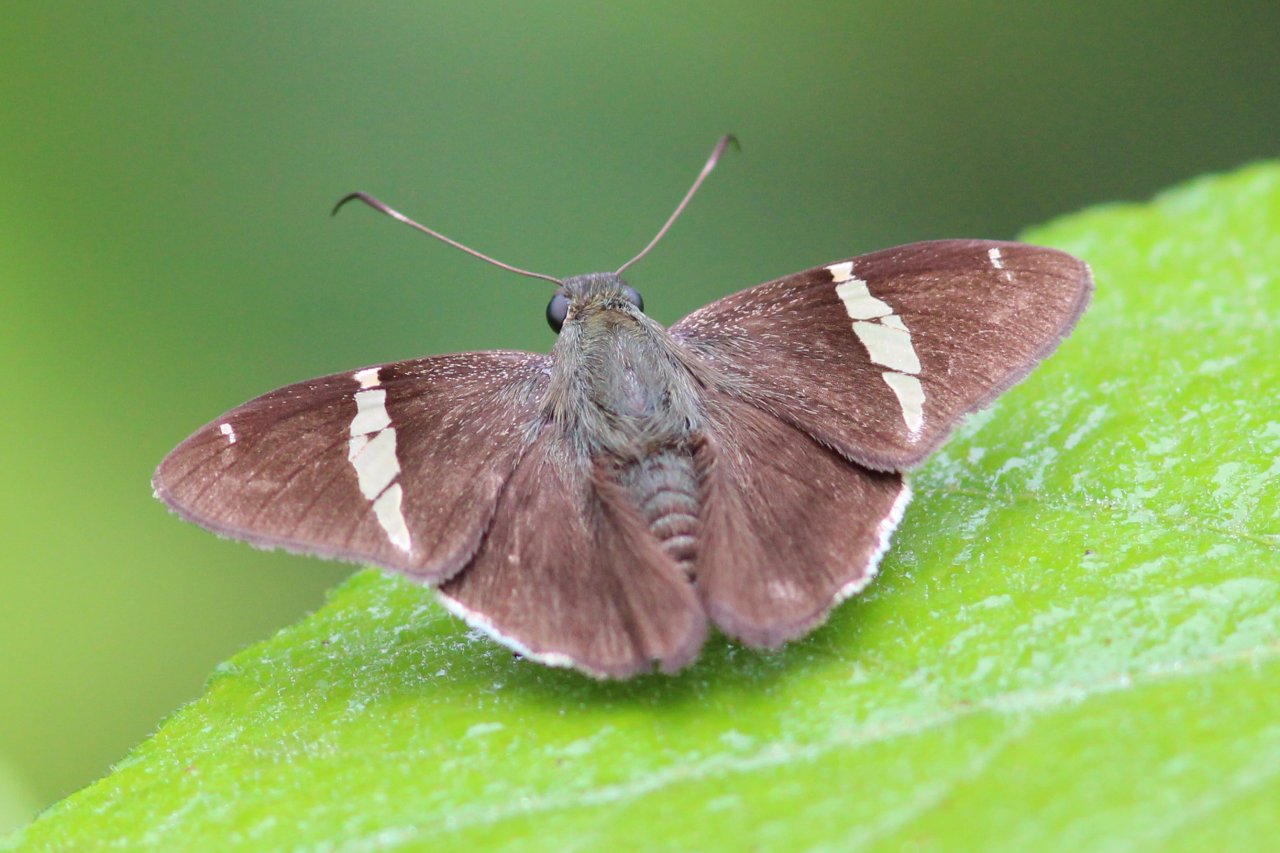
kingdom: Animalia
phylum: Arthropoda
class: Insecta
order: Lepidoptera
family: Hesperiidae
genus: Autochton
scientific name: Autochton neis
